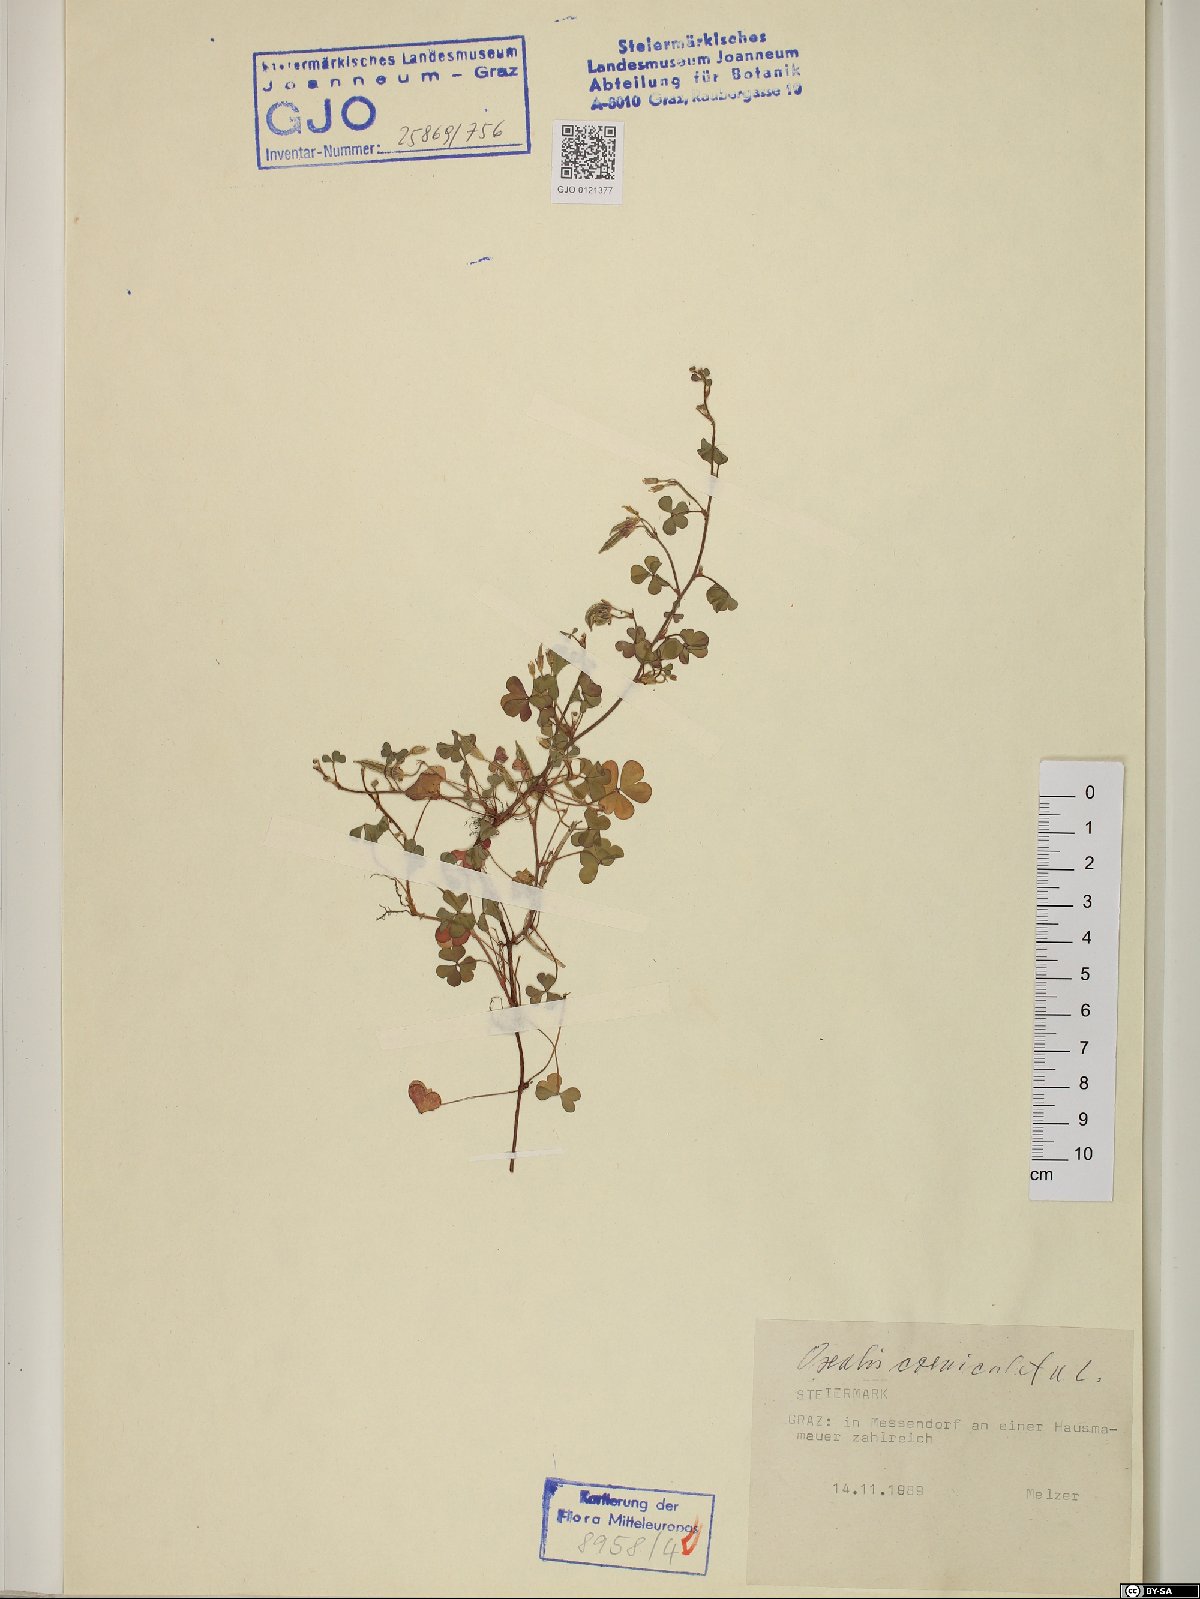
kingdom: Plantae
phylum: Tracheophyta
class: Magnoliopsida
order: Oxalidales
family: Oxalidaceae
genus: Oxalis
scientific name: Oxalis corniculata
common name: Procumbent yellow-sorrel
